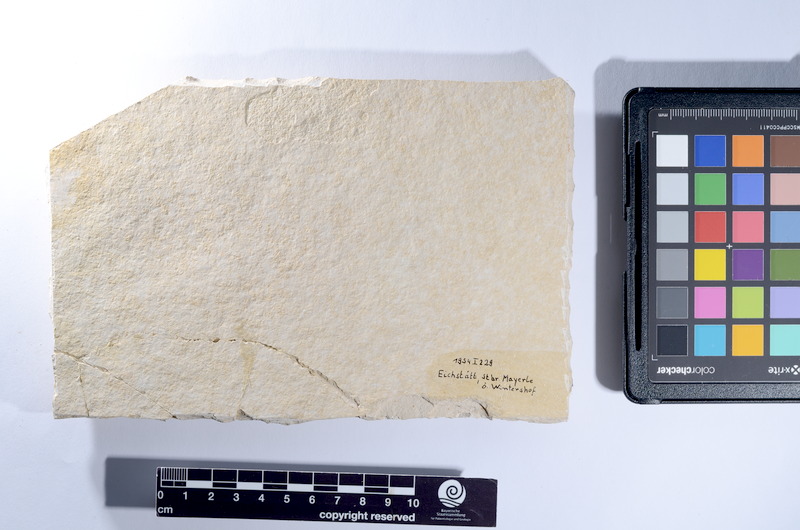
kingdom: Animalia
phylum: Chordata
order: Amiiformes
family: Caturidae
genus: Caturus
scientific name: Caturus
